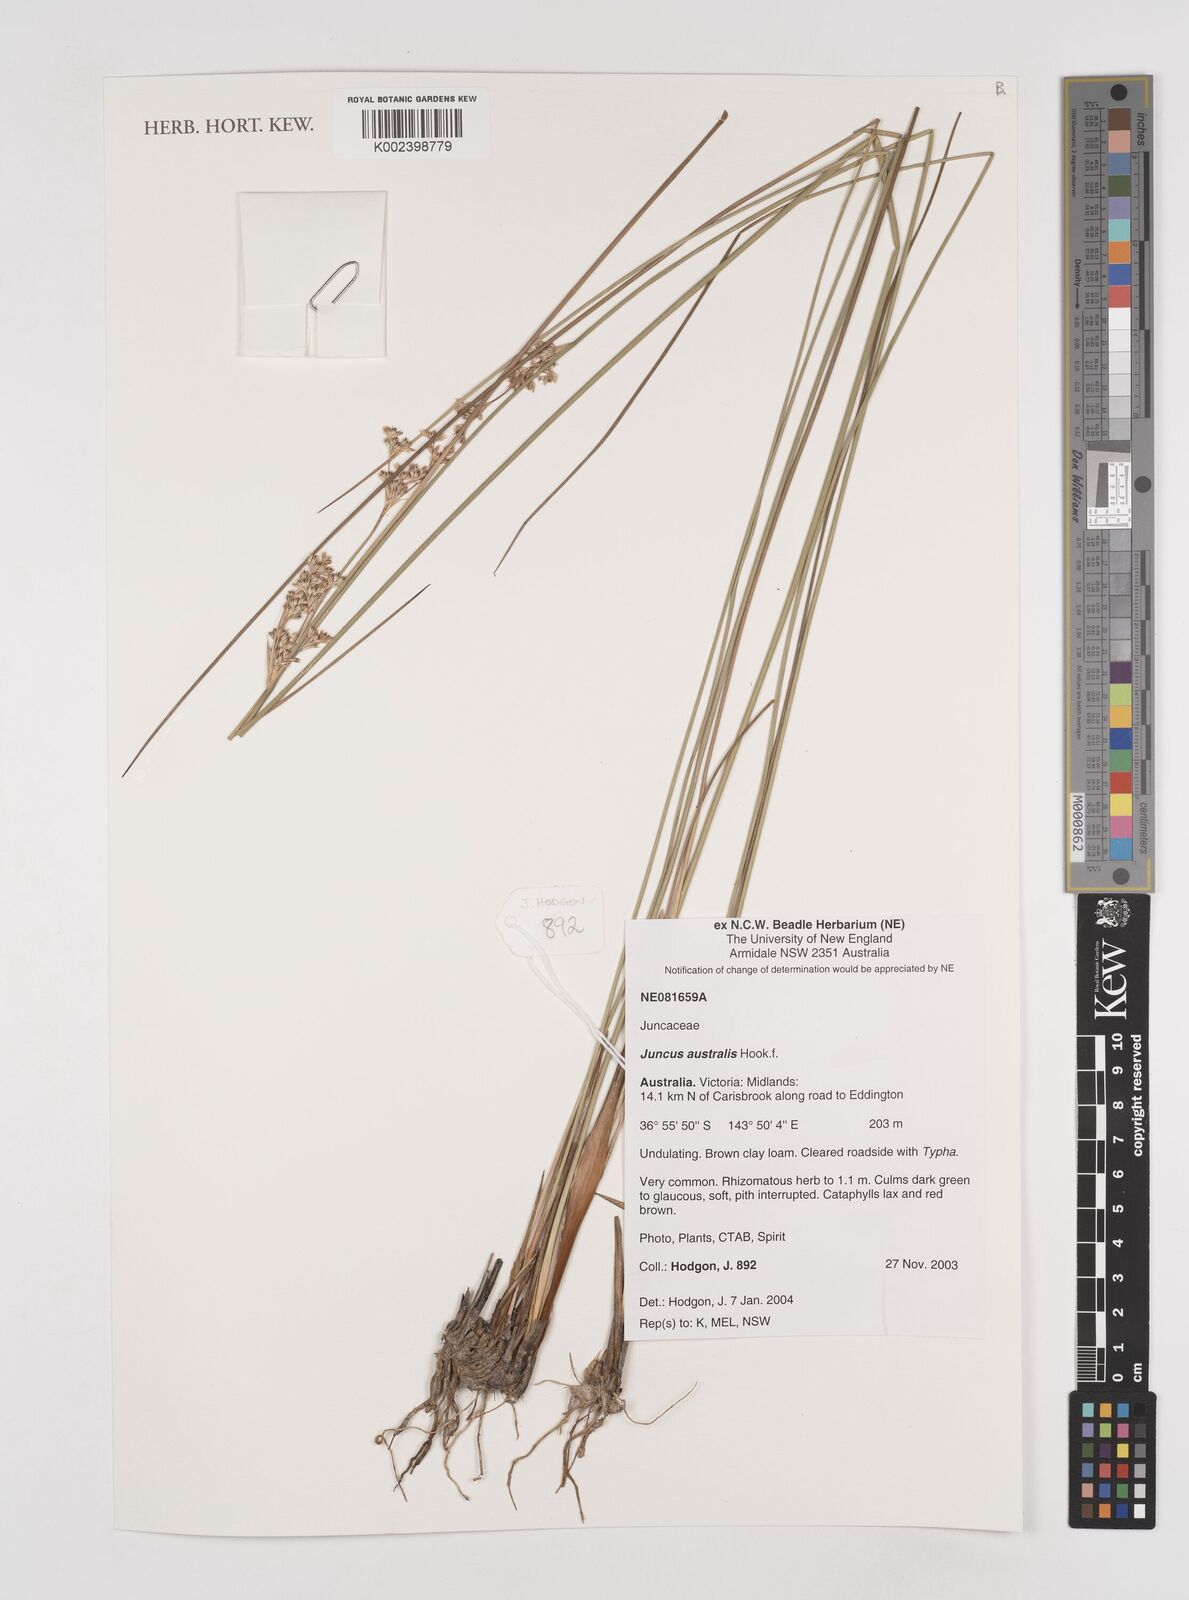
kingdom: Plantae
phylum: Tracheophyta
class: Liliopsida
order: Poales
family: Juncaceae
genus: Juncus
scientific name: Juncus australis
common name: Austral rush
